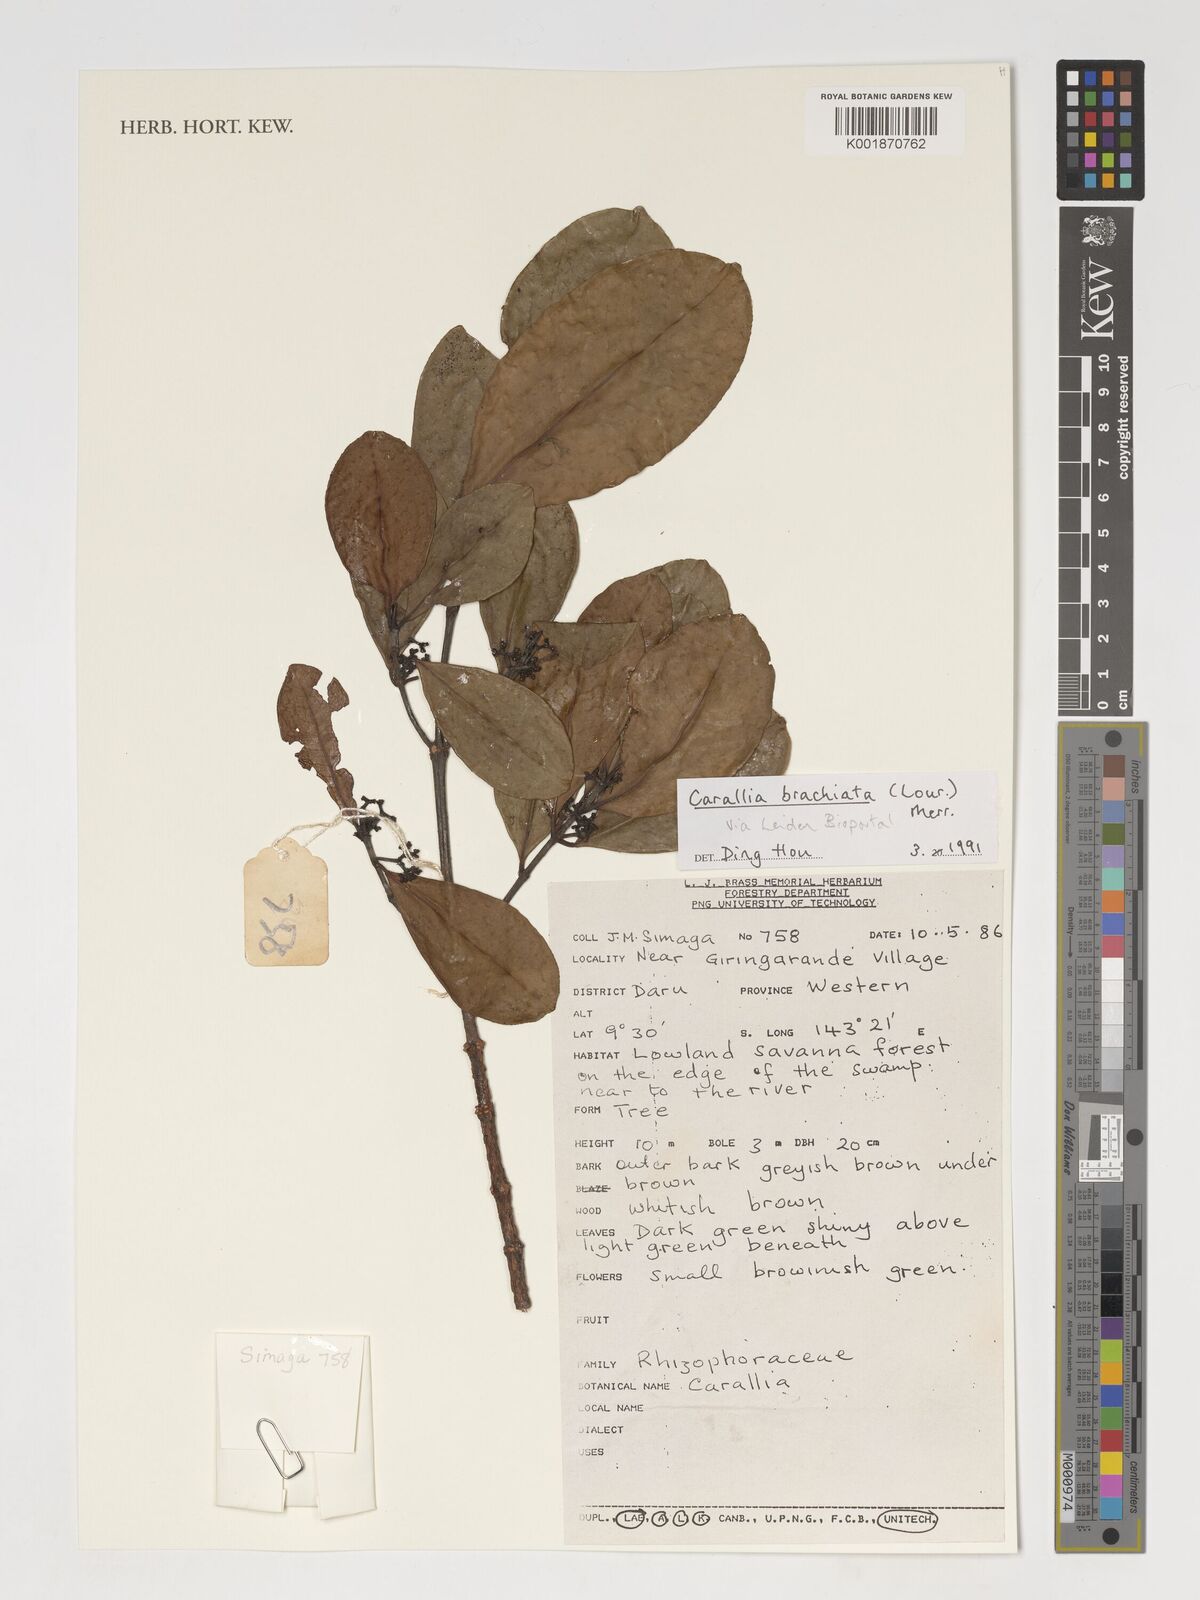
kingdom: Plantae
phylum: Tracheophyta
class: Magnoliopsida
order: Malpighiales
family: Rhizophoraceae
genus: Carallia
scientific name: Carallia brachiata
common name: Carallawood
